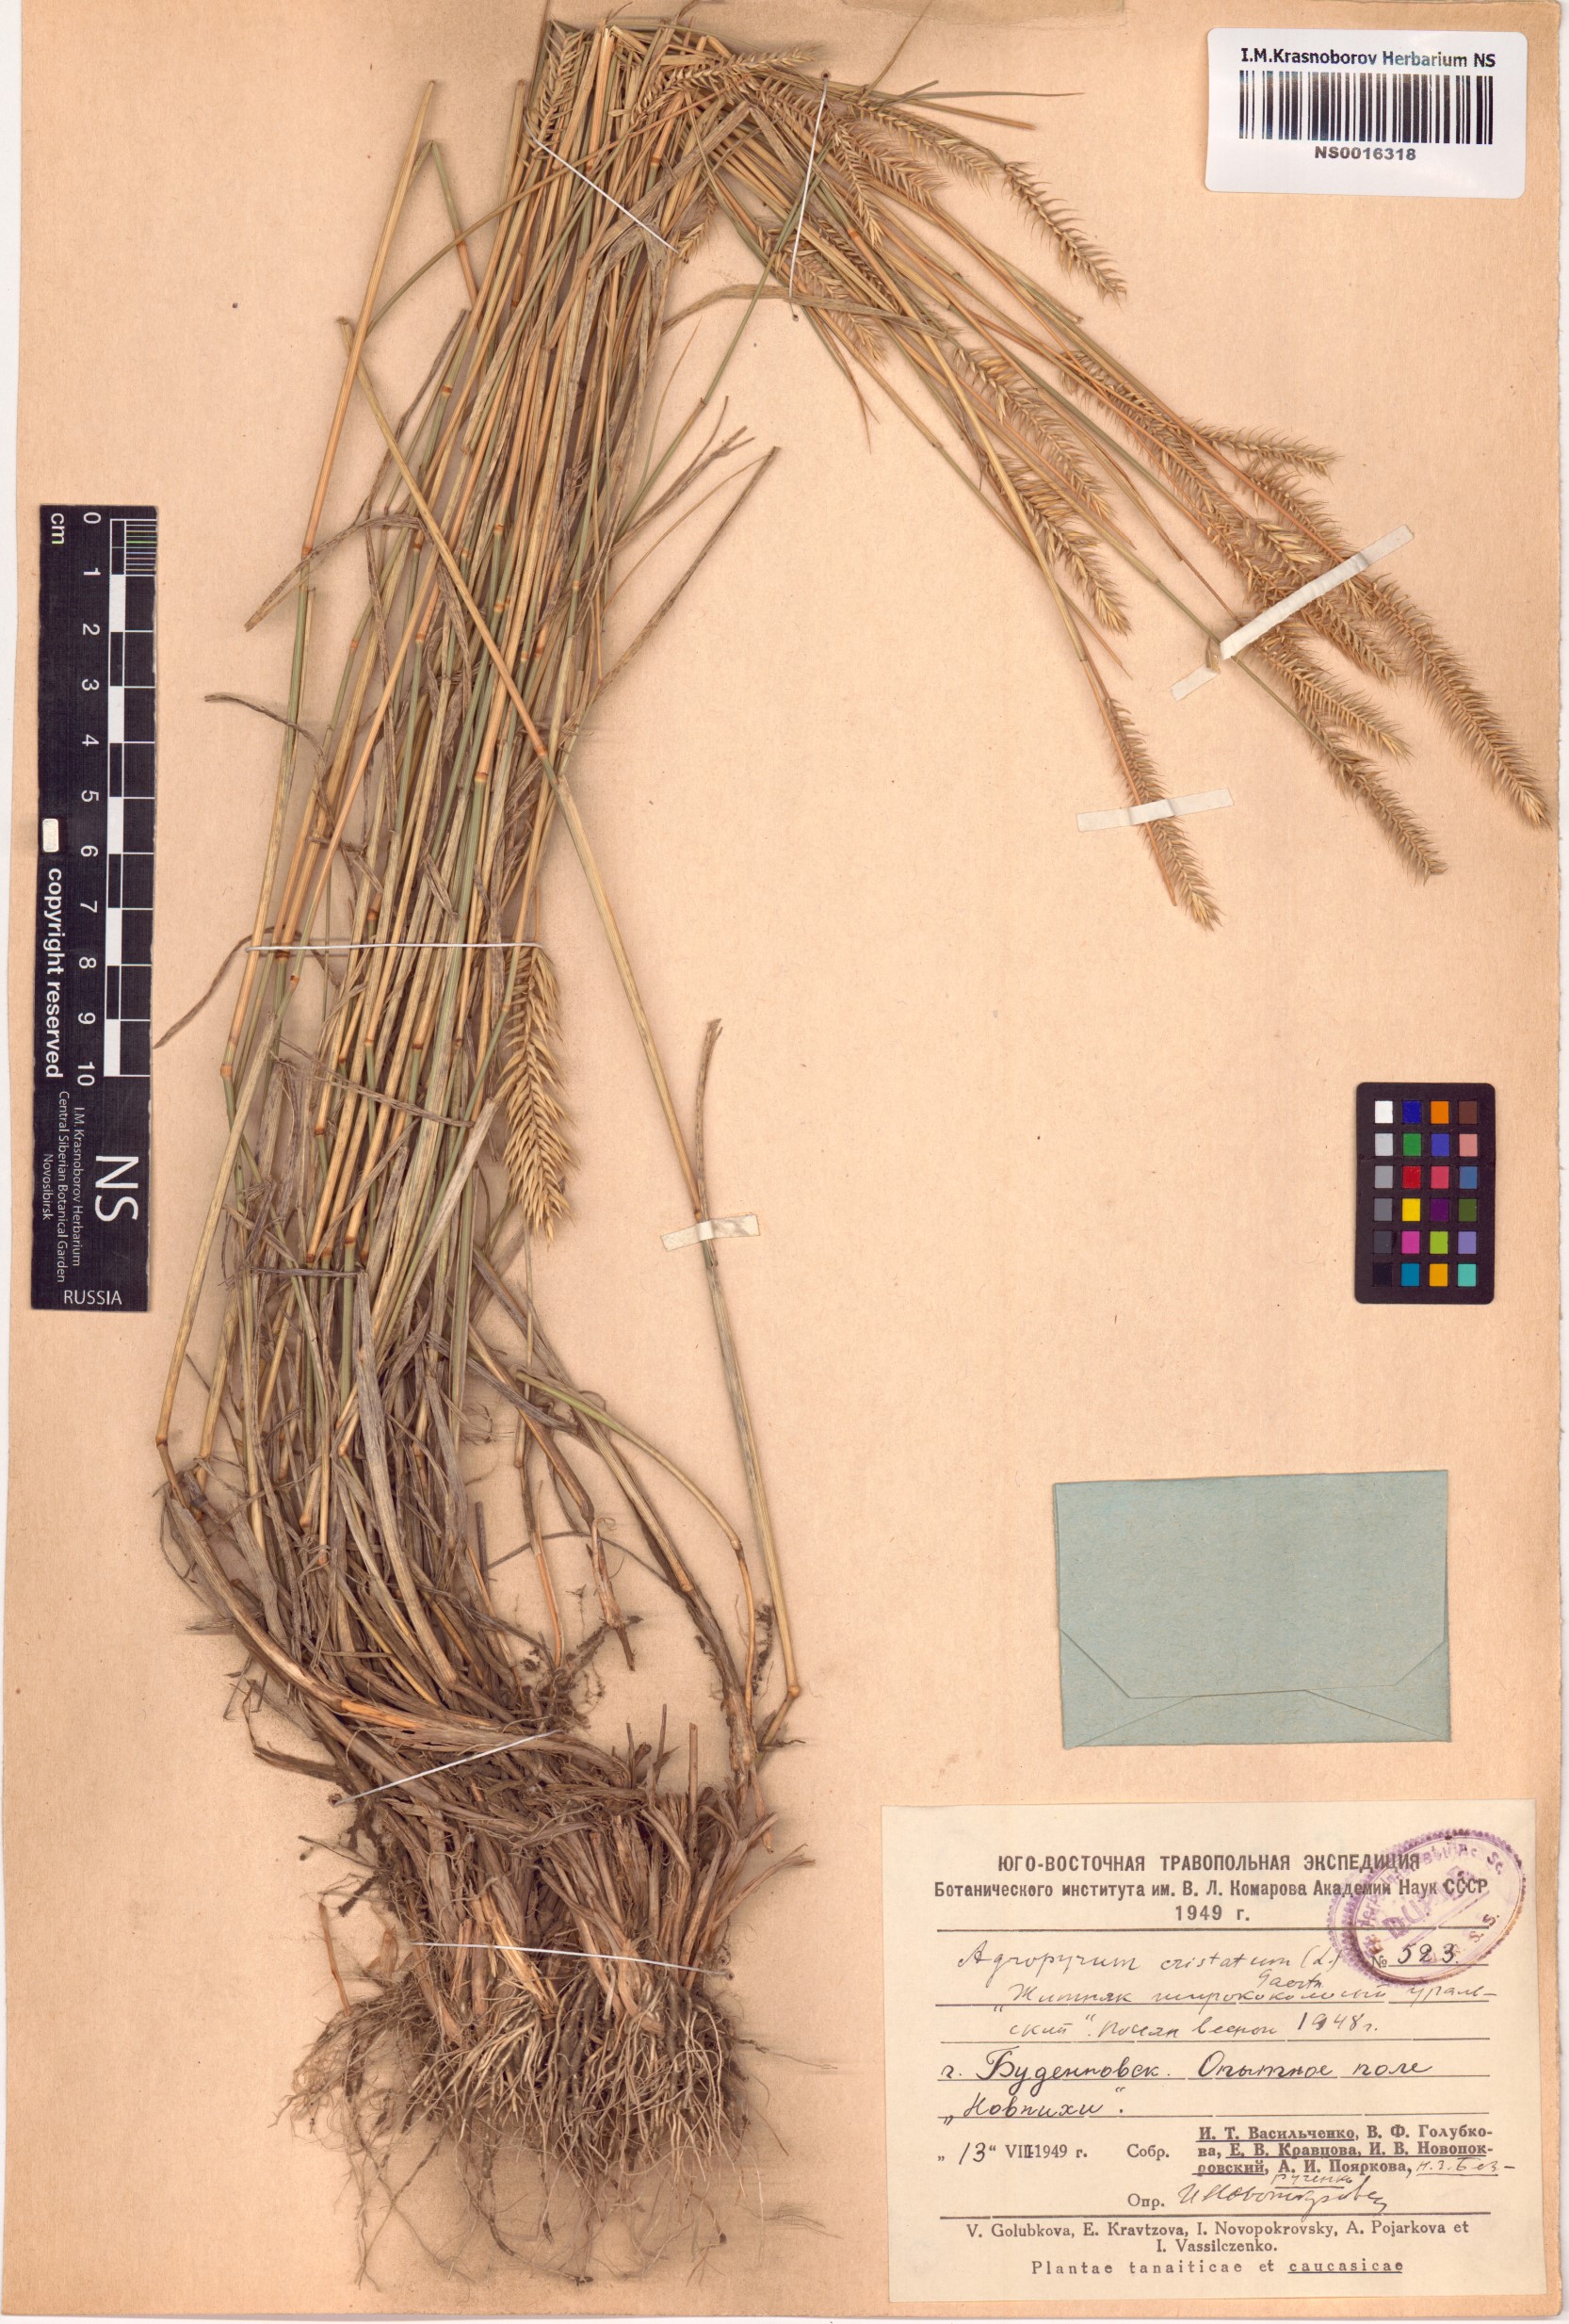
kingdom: Plantae
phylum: Tracheophyta
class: Liliopsida
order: Poales
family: Poaceae
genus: Agropyron
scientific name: Agropyron cristatum
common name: Crested wheatgrass
